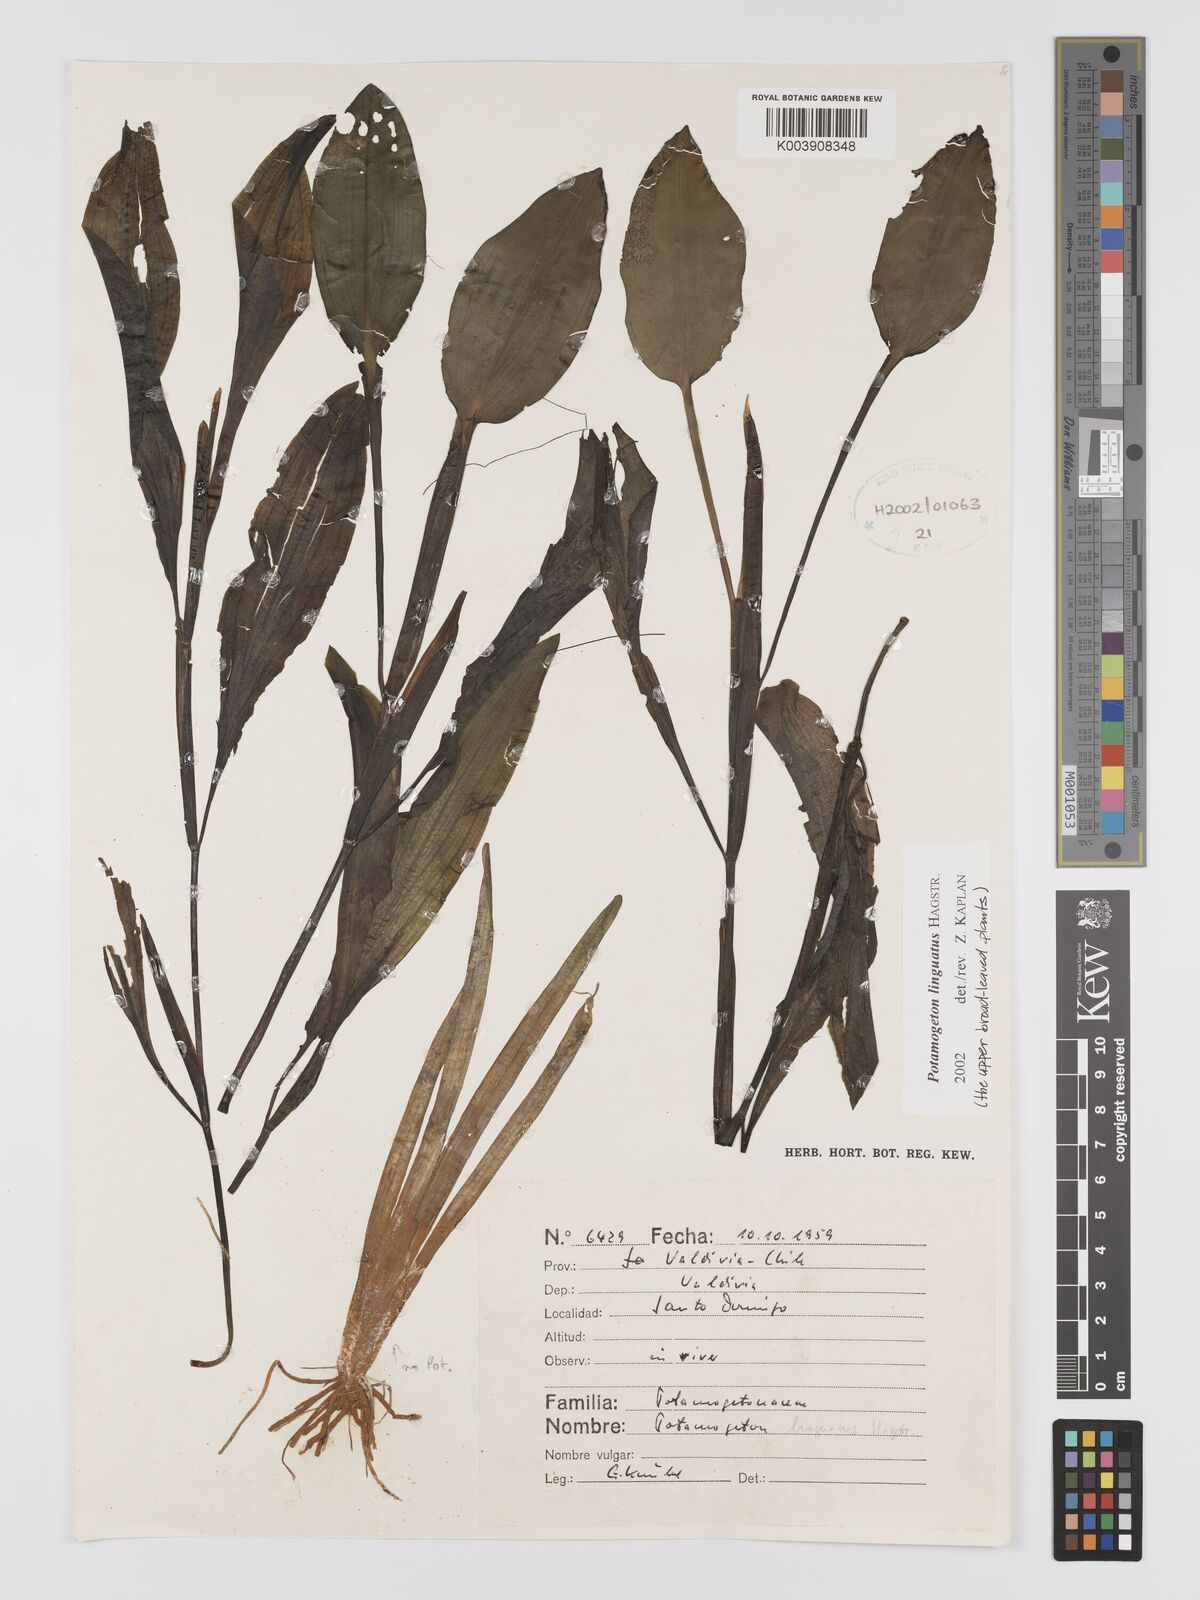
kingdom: Plantae
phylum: Tracheophyta
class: Liliopsida
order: Alismatales
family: Potamogetonaceae
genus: Potamogeton
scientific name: Potamogeton linguatus
